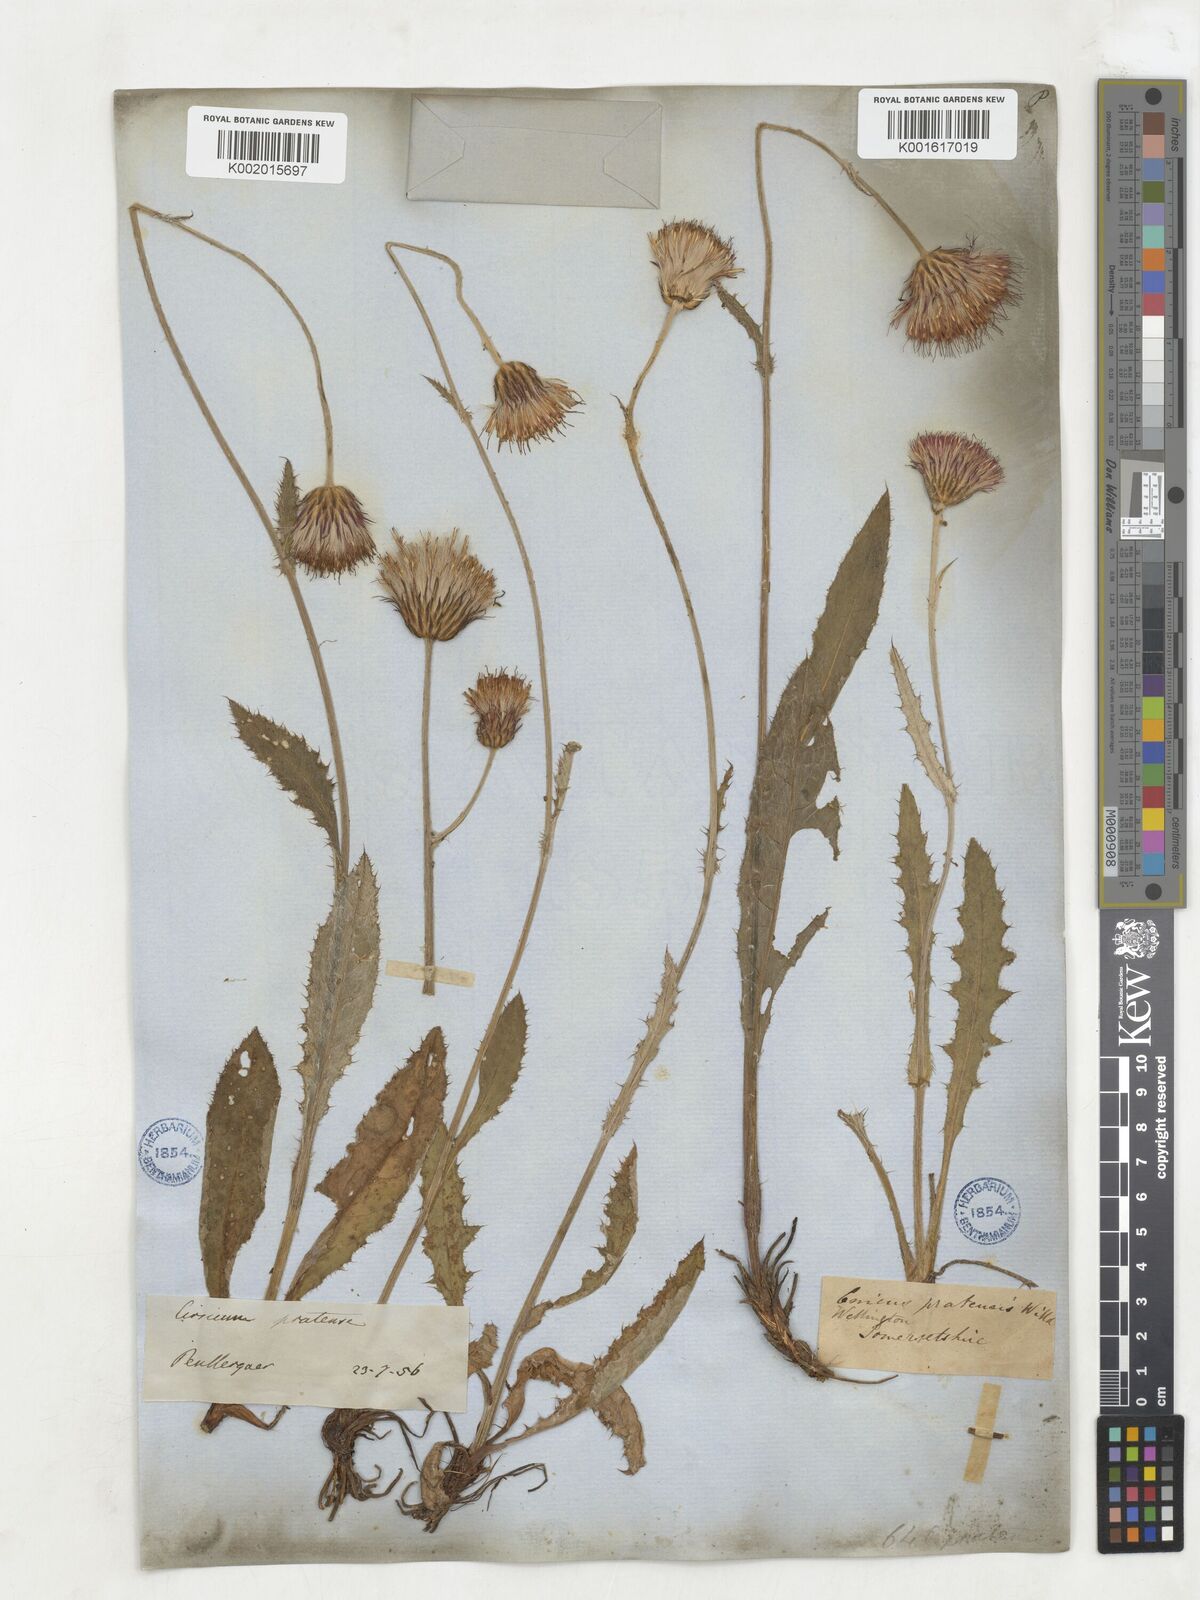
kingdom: Plantae
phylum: Tracheophyta
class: Magnoliopsida
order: Asterales
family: Asteraceae
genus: Cirsium
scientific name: Cirsium
